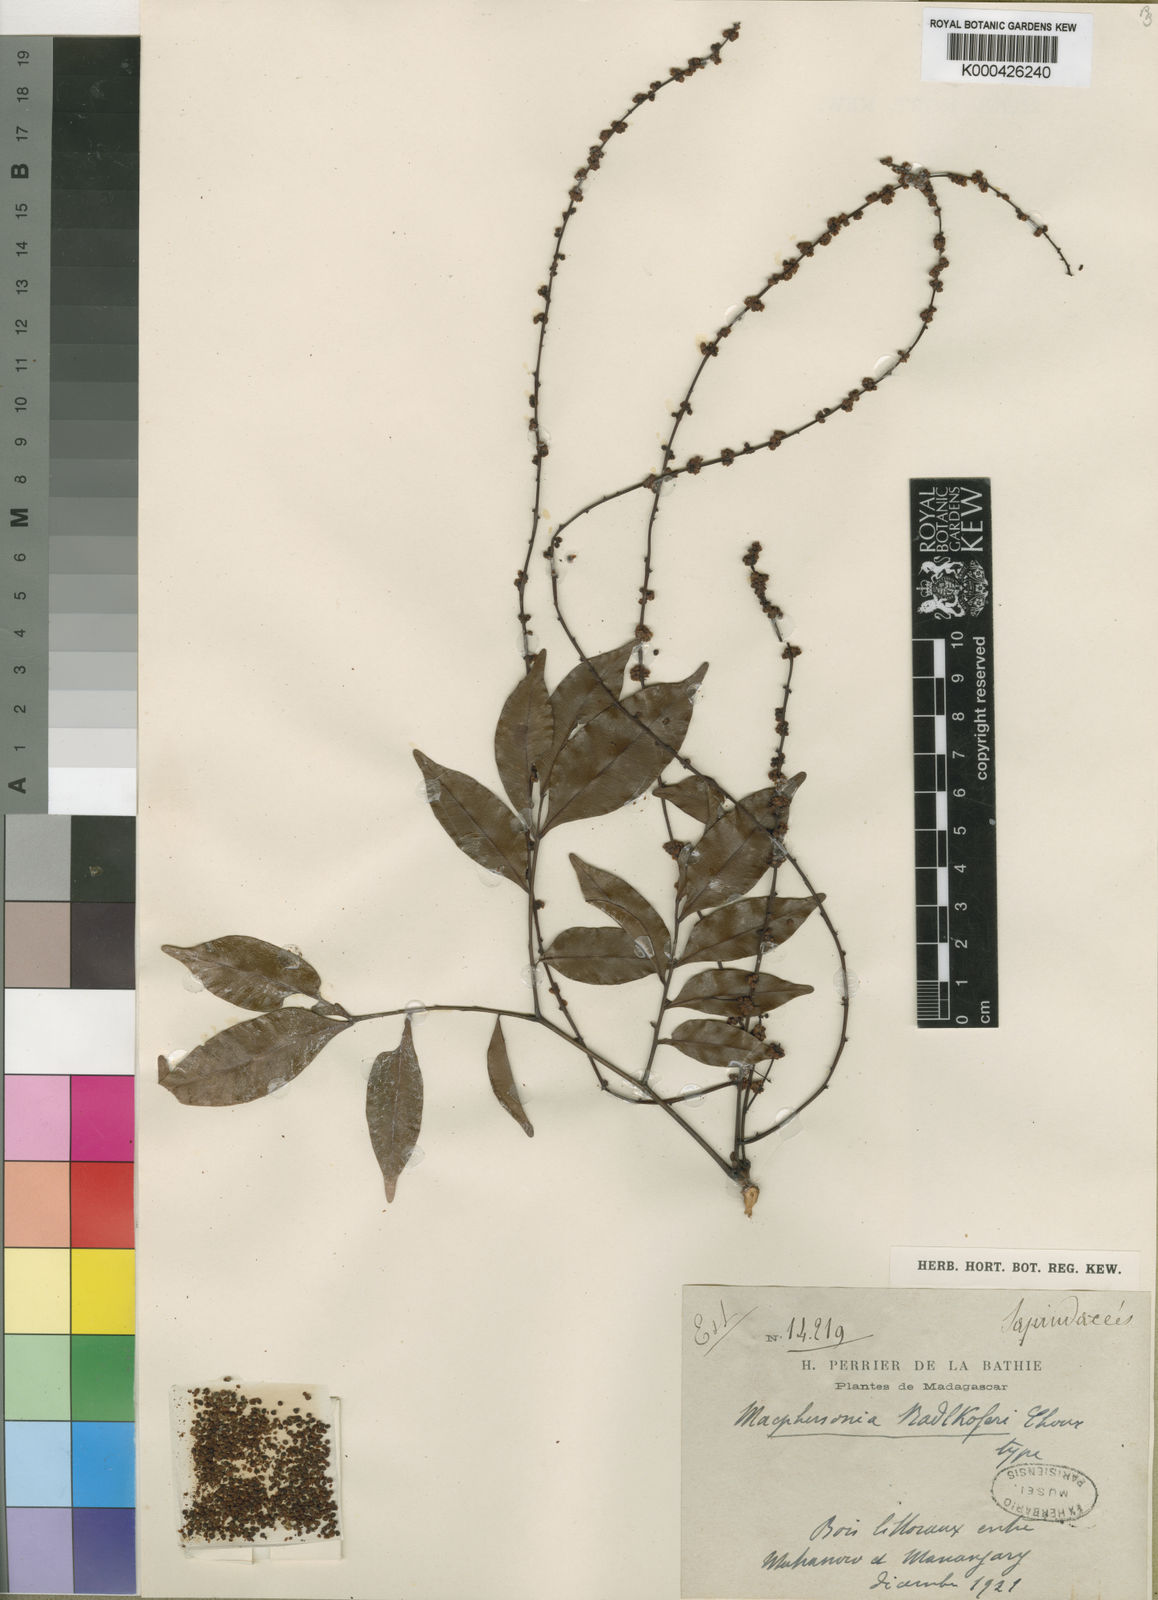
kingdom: Plantae
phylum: Tracheophyta
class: Magnoliopsida
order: Sapindales
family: Sapindaceae
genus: Macphersonia
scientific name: Macphersonia radlkoferi
